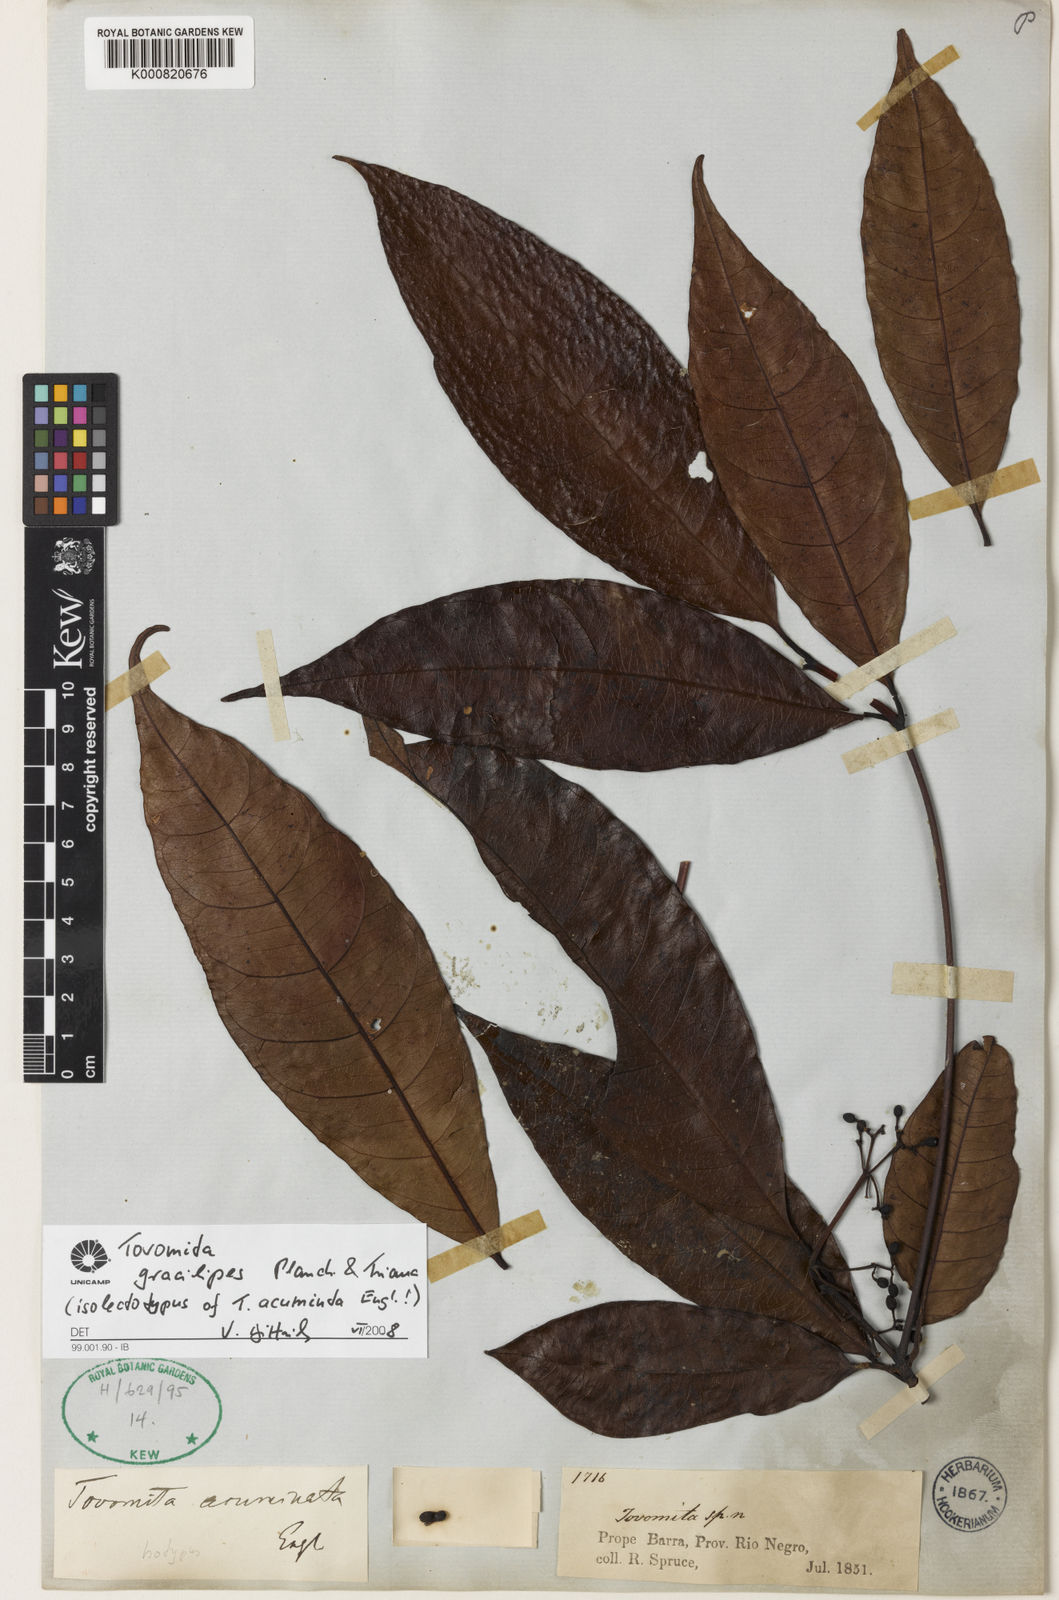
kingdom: Plantae
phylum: Tracheophyta
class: Magnoliopsida
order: Malpighiales
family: Clusiaceae
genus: Tovomita
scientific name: Tovomita gracilipes
